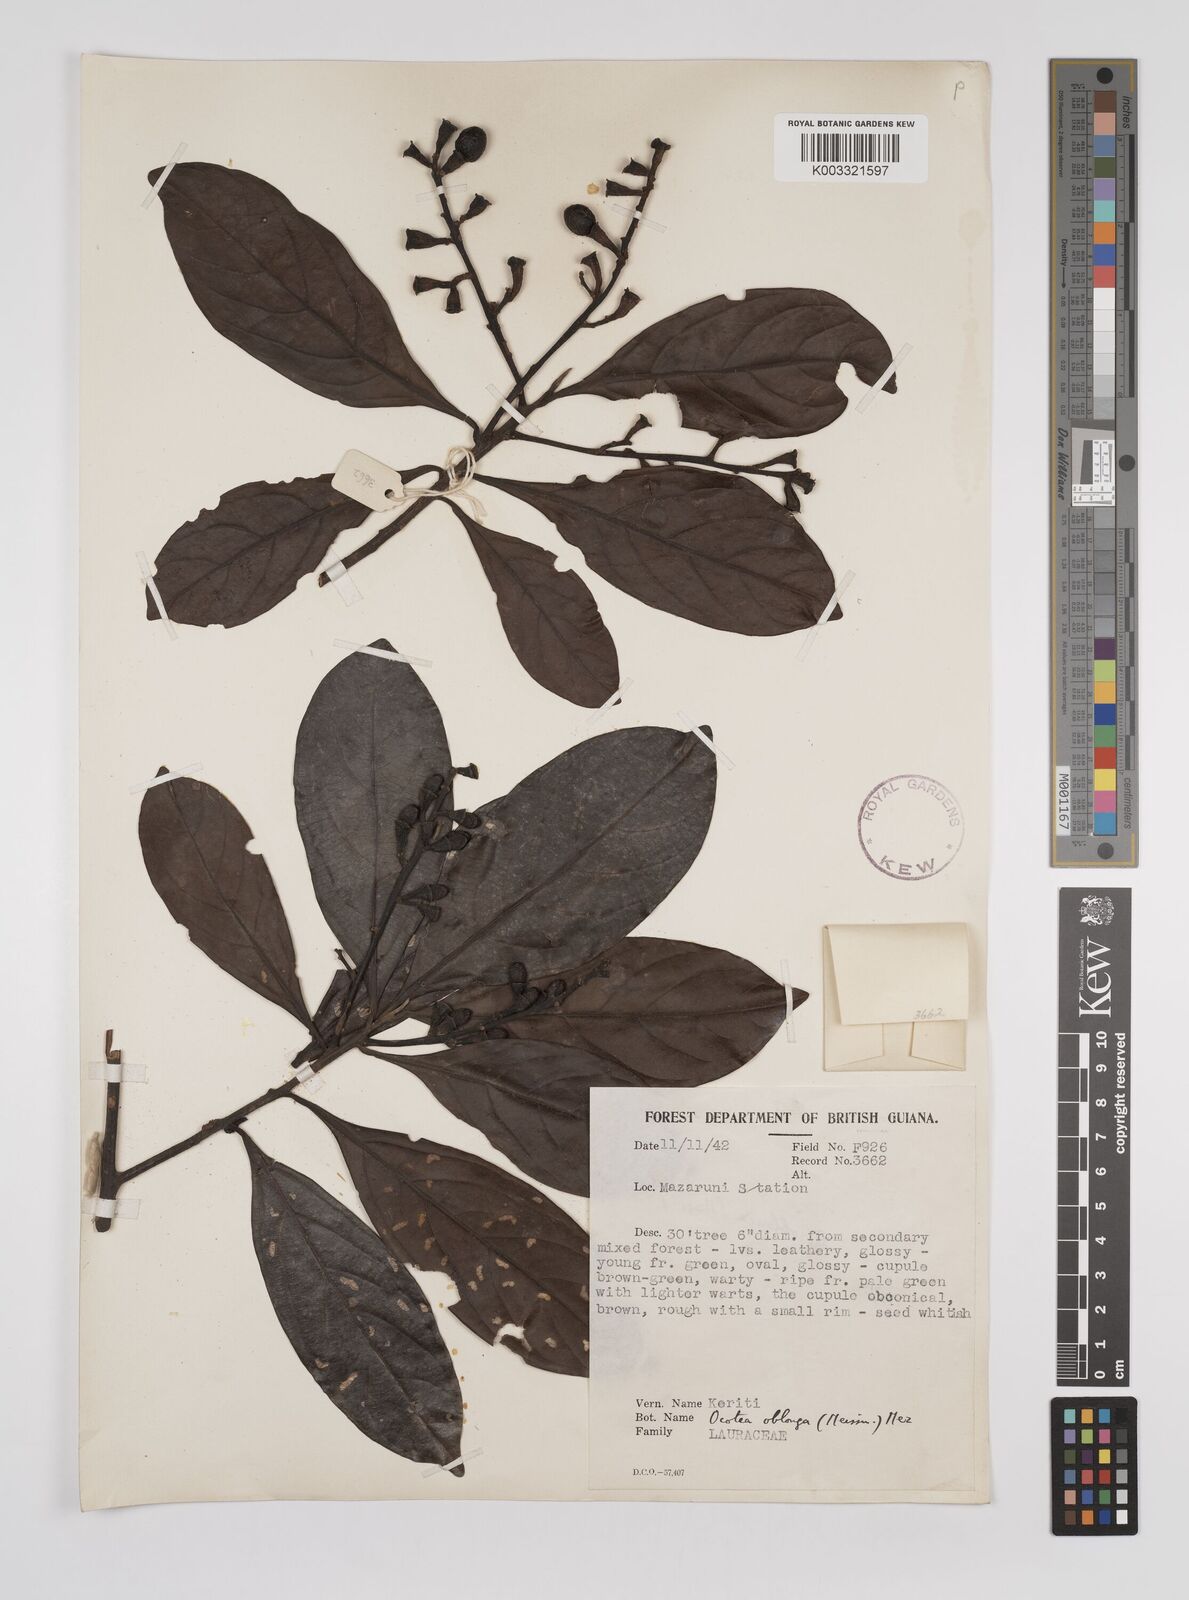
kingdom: Plantae
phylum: Tracheophyta
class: Magnoliopsida
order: Laurales
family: Lauraceae
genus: Ocotea
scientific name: Ocotea oblonga
